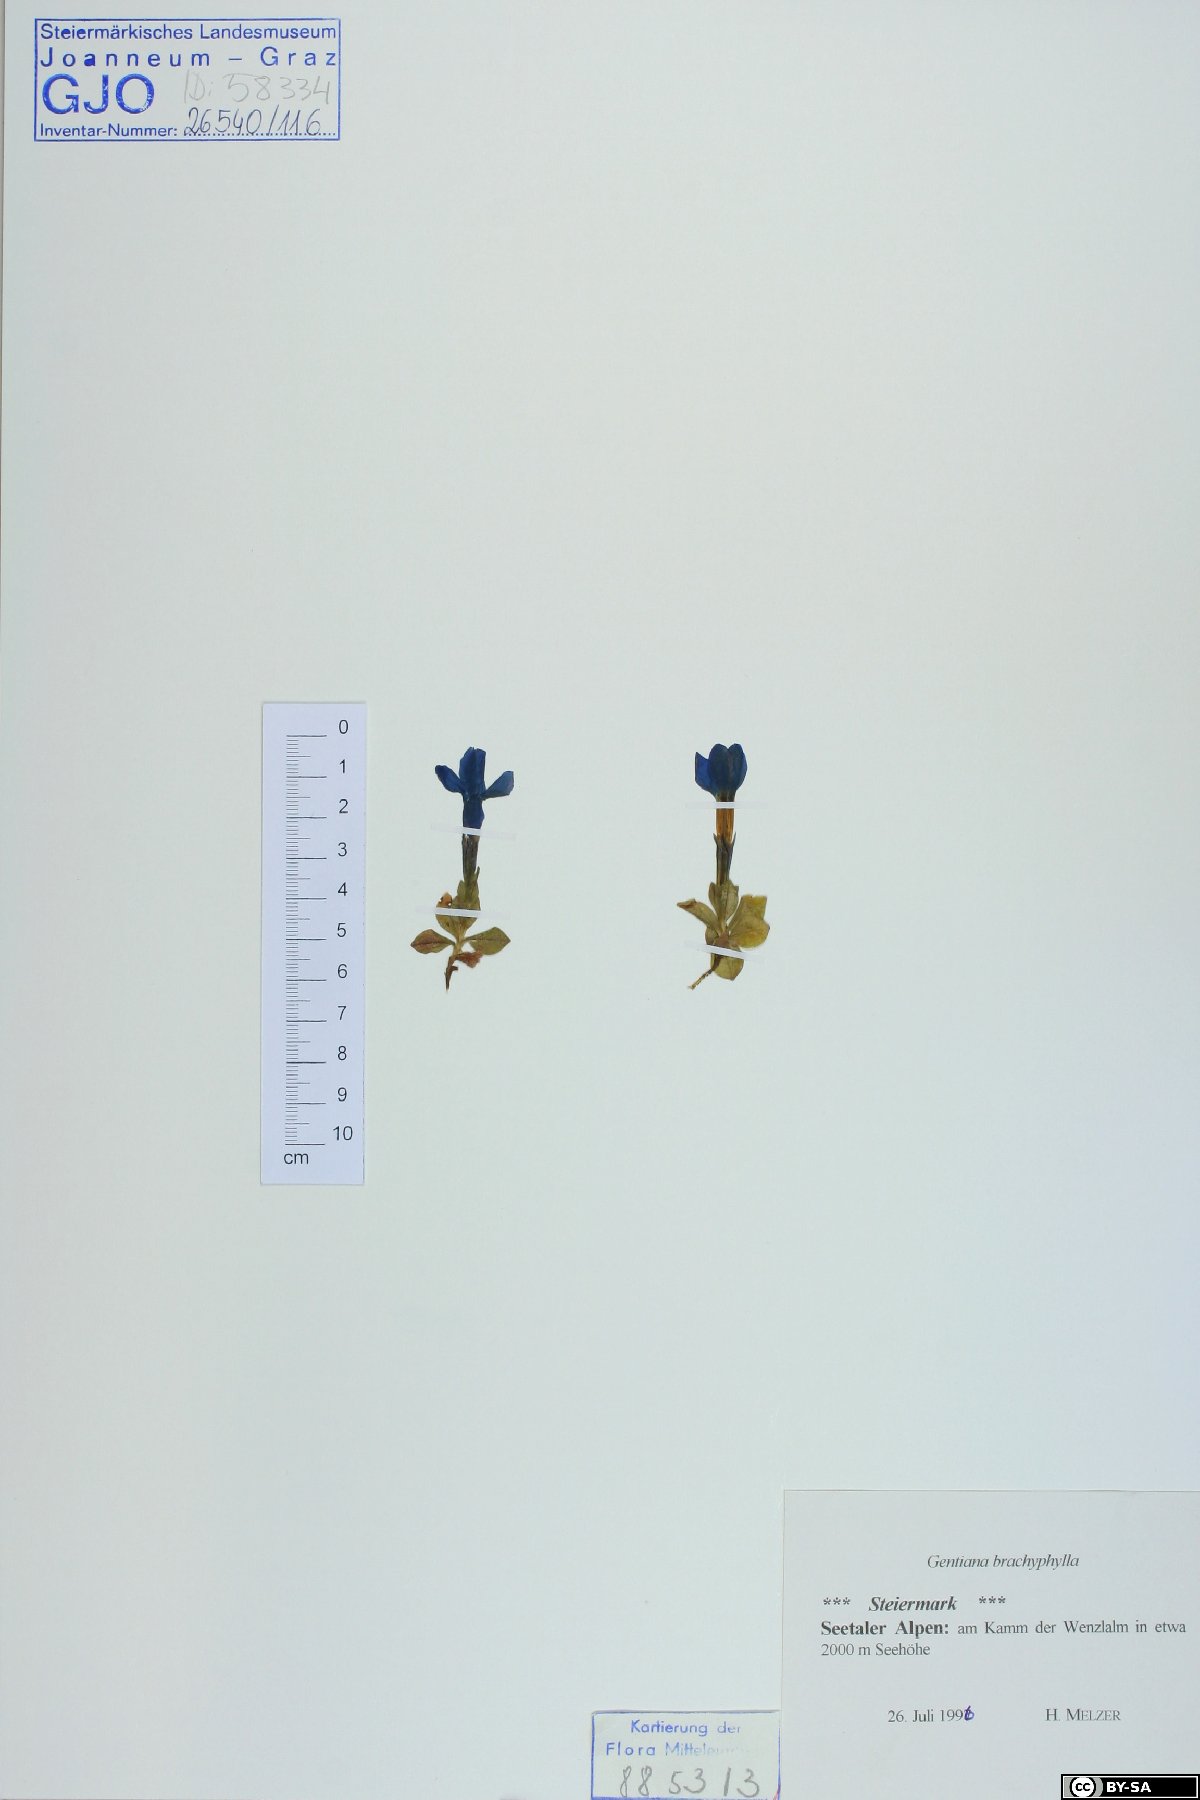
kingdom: Plantae
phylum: Tracheophyta
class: Magnoliopsida
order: Gentianales
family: Gentianaceae
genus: Gentiana
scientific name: Gentiana brachyphylla
